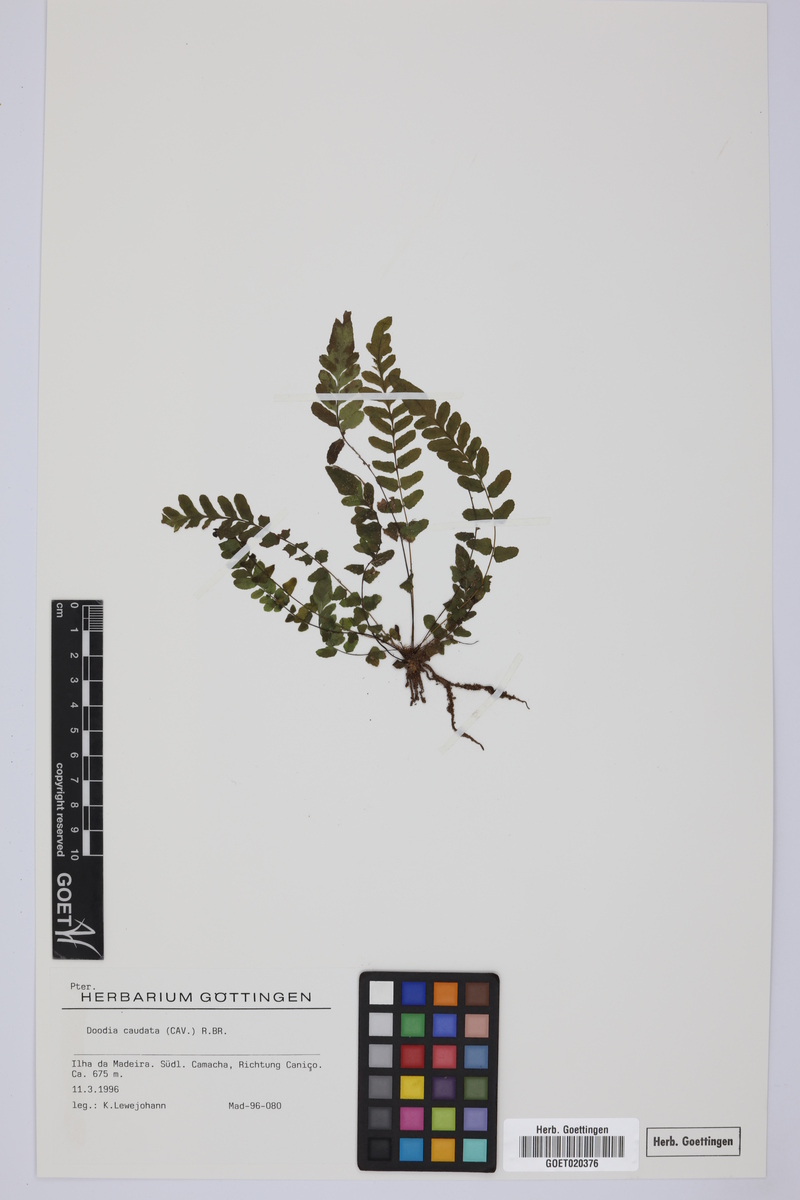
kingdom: Plantae
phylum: Tracheophyta
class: Polypodiopsida
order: Polypodiales
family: Blechnaceae
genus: Doodia
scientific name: Doodia caudata
